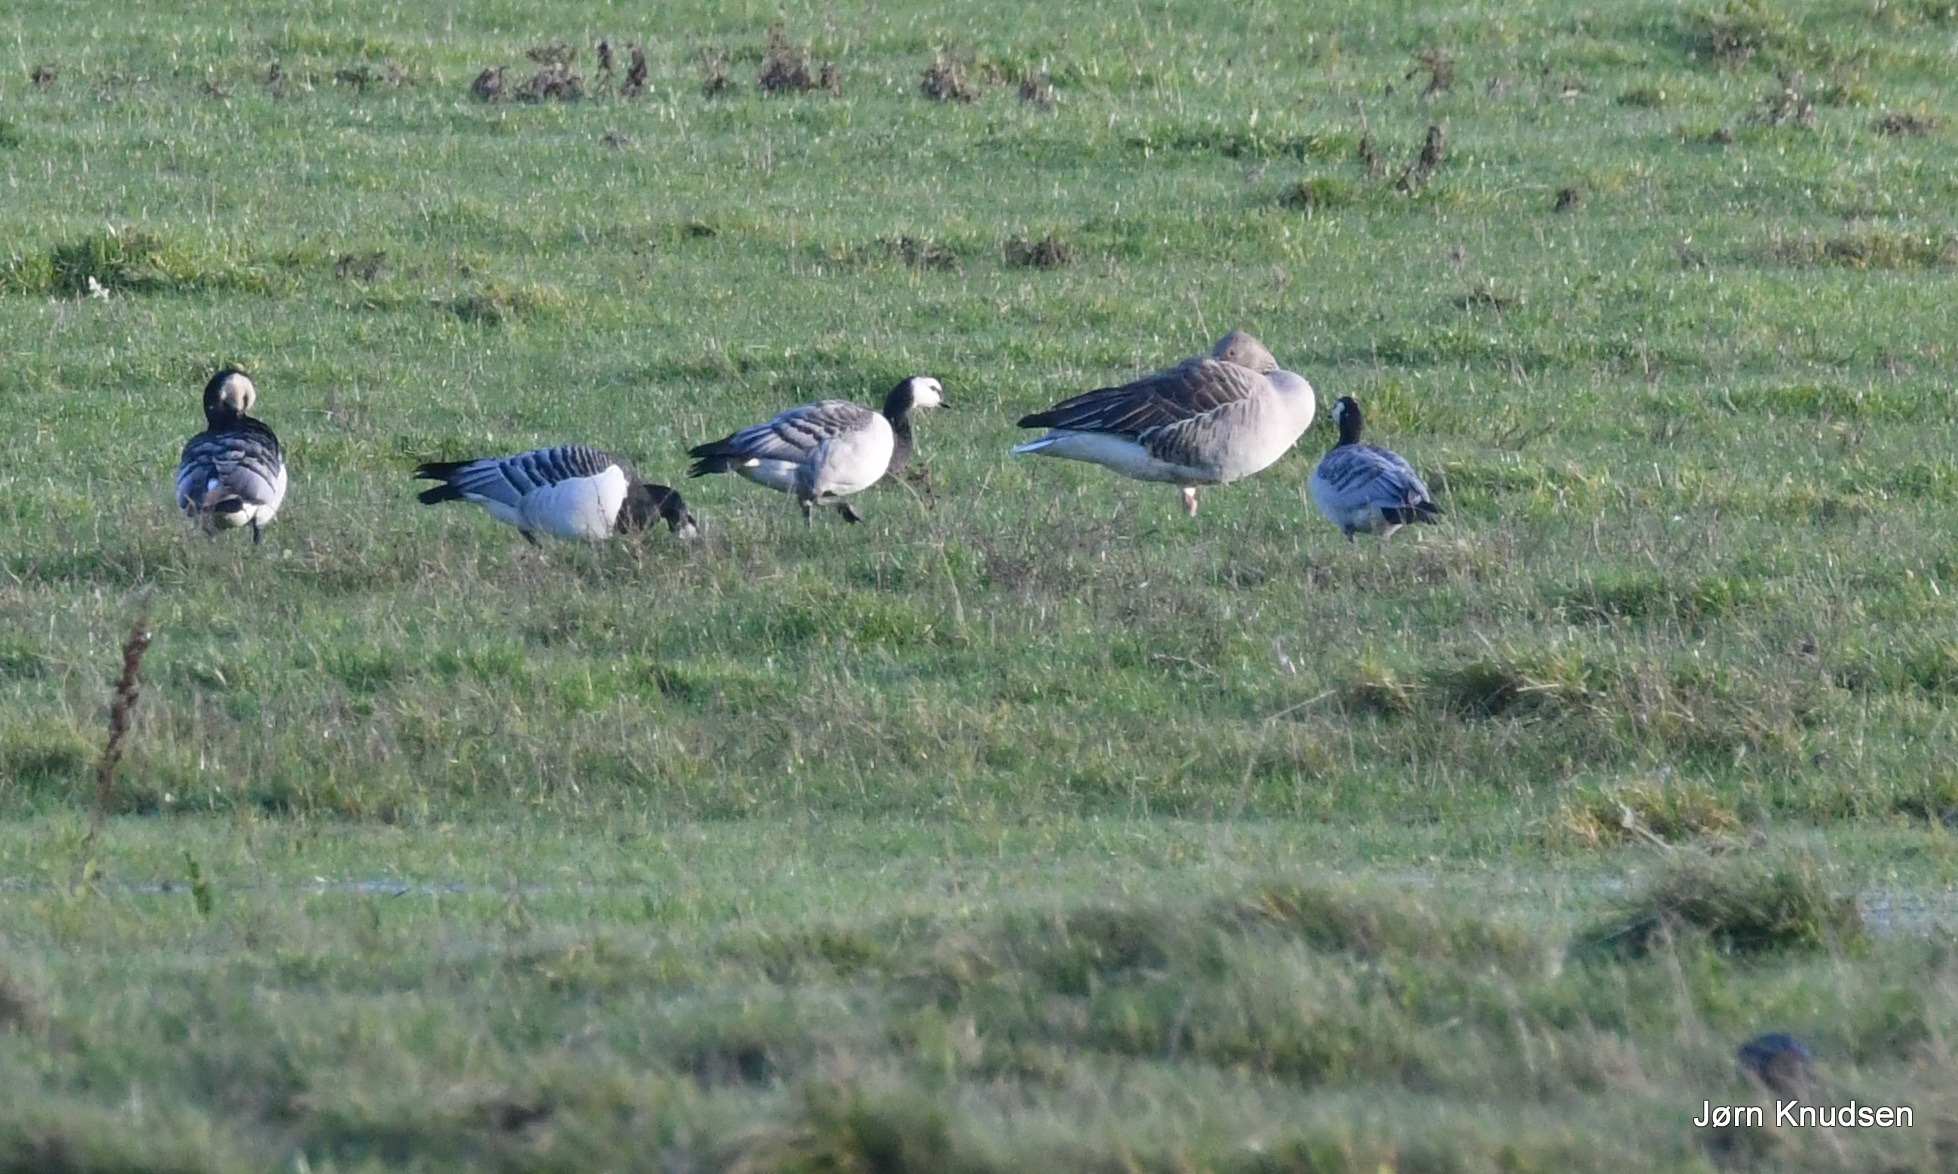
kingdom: Animalia
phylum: Chordata
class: Aves
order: Anseriformes
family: Anatidae
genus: Anser
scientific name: Anser anser
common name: Grågås
